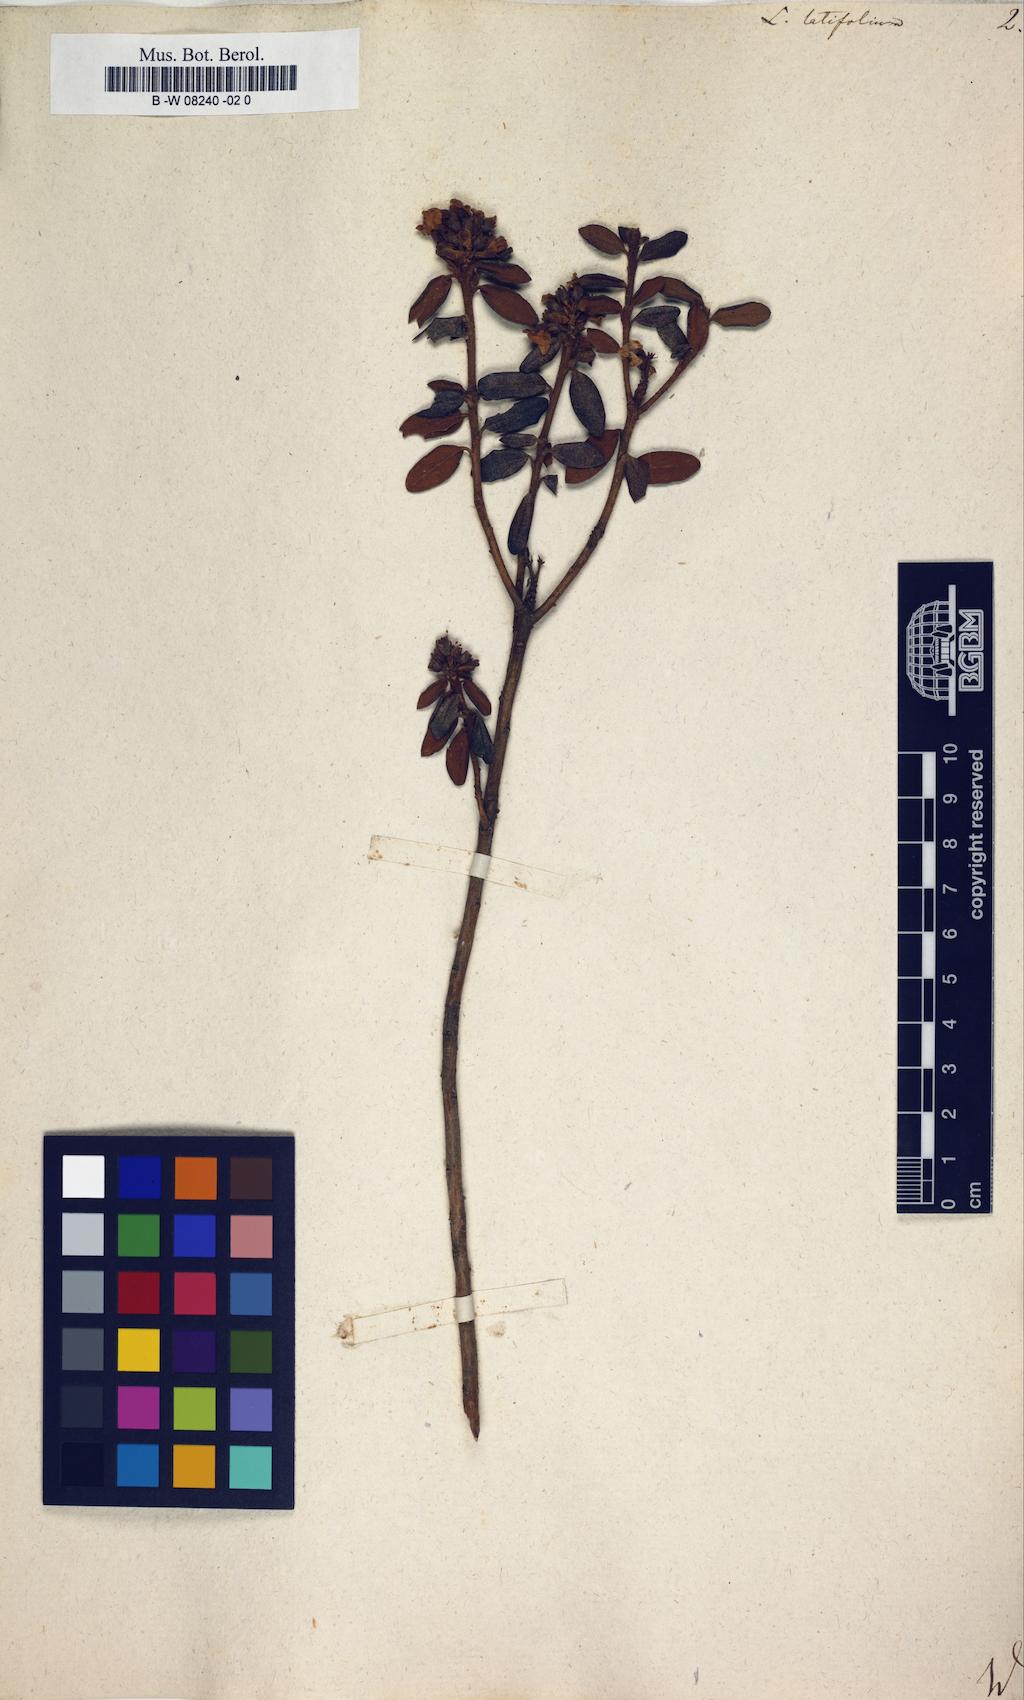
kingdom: Plantae
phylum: Tracheophyta
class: Magnoliopsida
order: Ericales
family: Ericaceae
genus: Rhododendron
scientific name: Rhododendron groenlandicum
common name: Bog labrador tea
